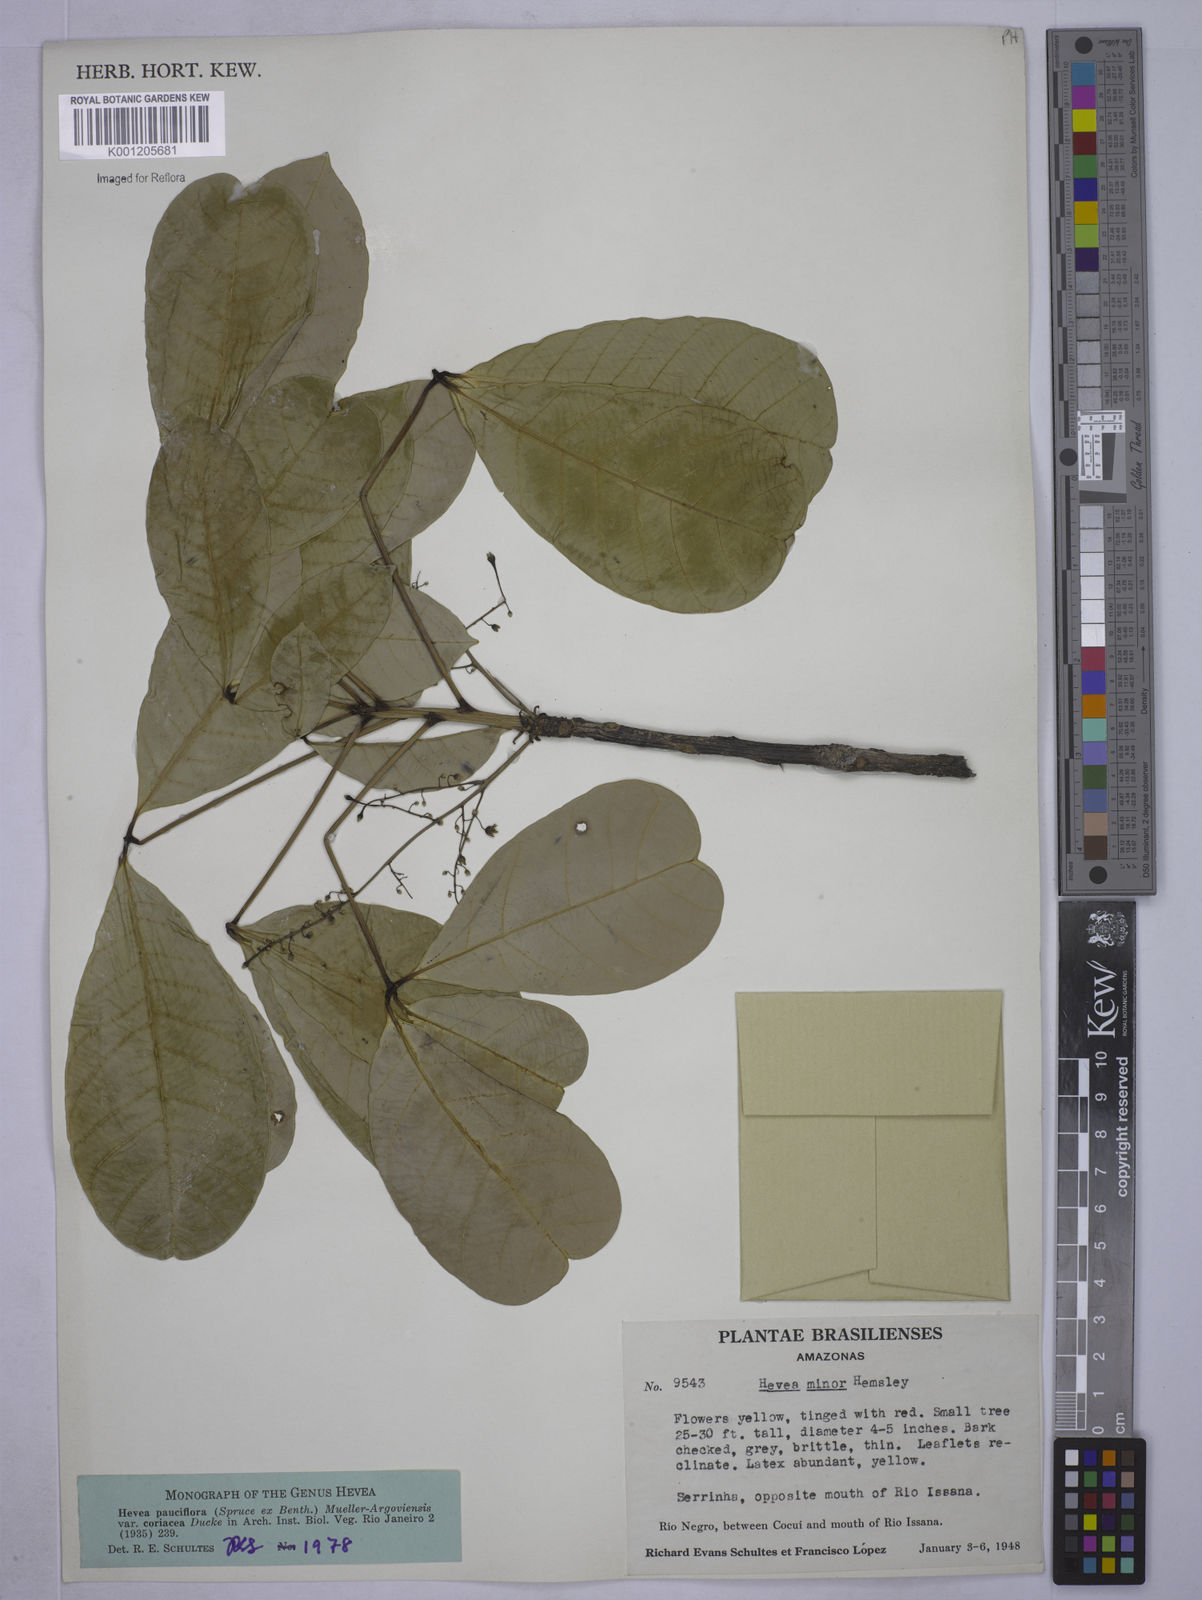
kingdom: Plantae
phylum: Tracheophyta
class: Magnoliopsida
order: Malpighiales
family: Euphorbiaceae
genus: Hevea
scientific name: Hevea pauciflora
